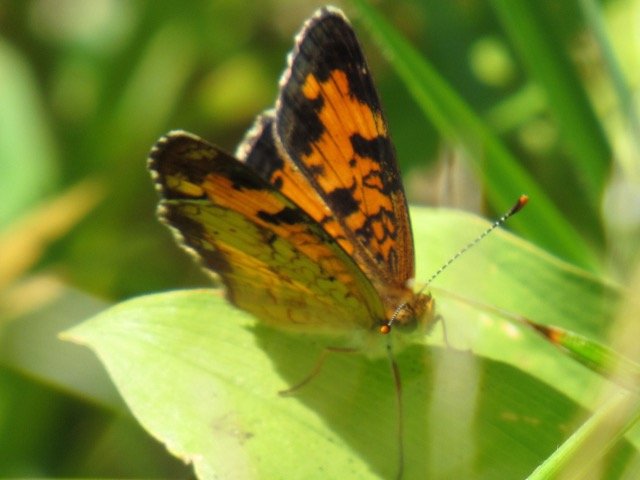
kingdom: Animalia
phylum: Arthropoda
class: Insecta
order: Lepidoptera
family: Nymphalidae
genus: Phyciodes
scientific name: Phyciodes tharos
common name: Pearl Crescent
